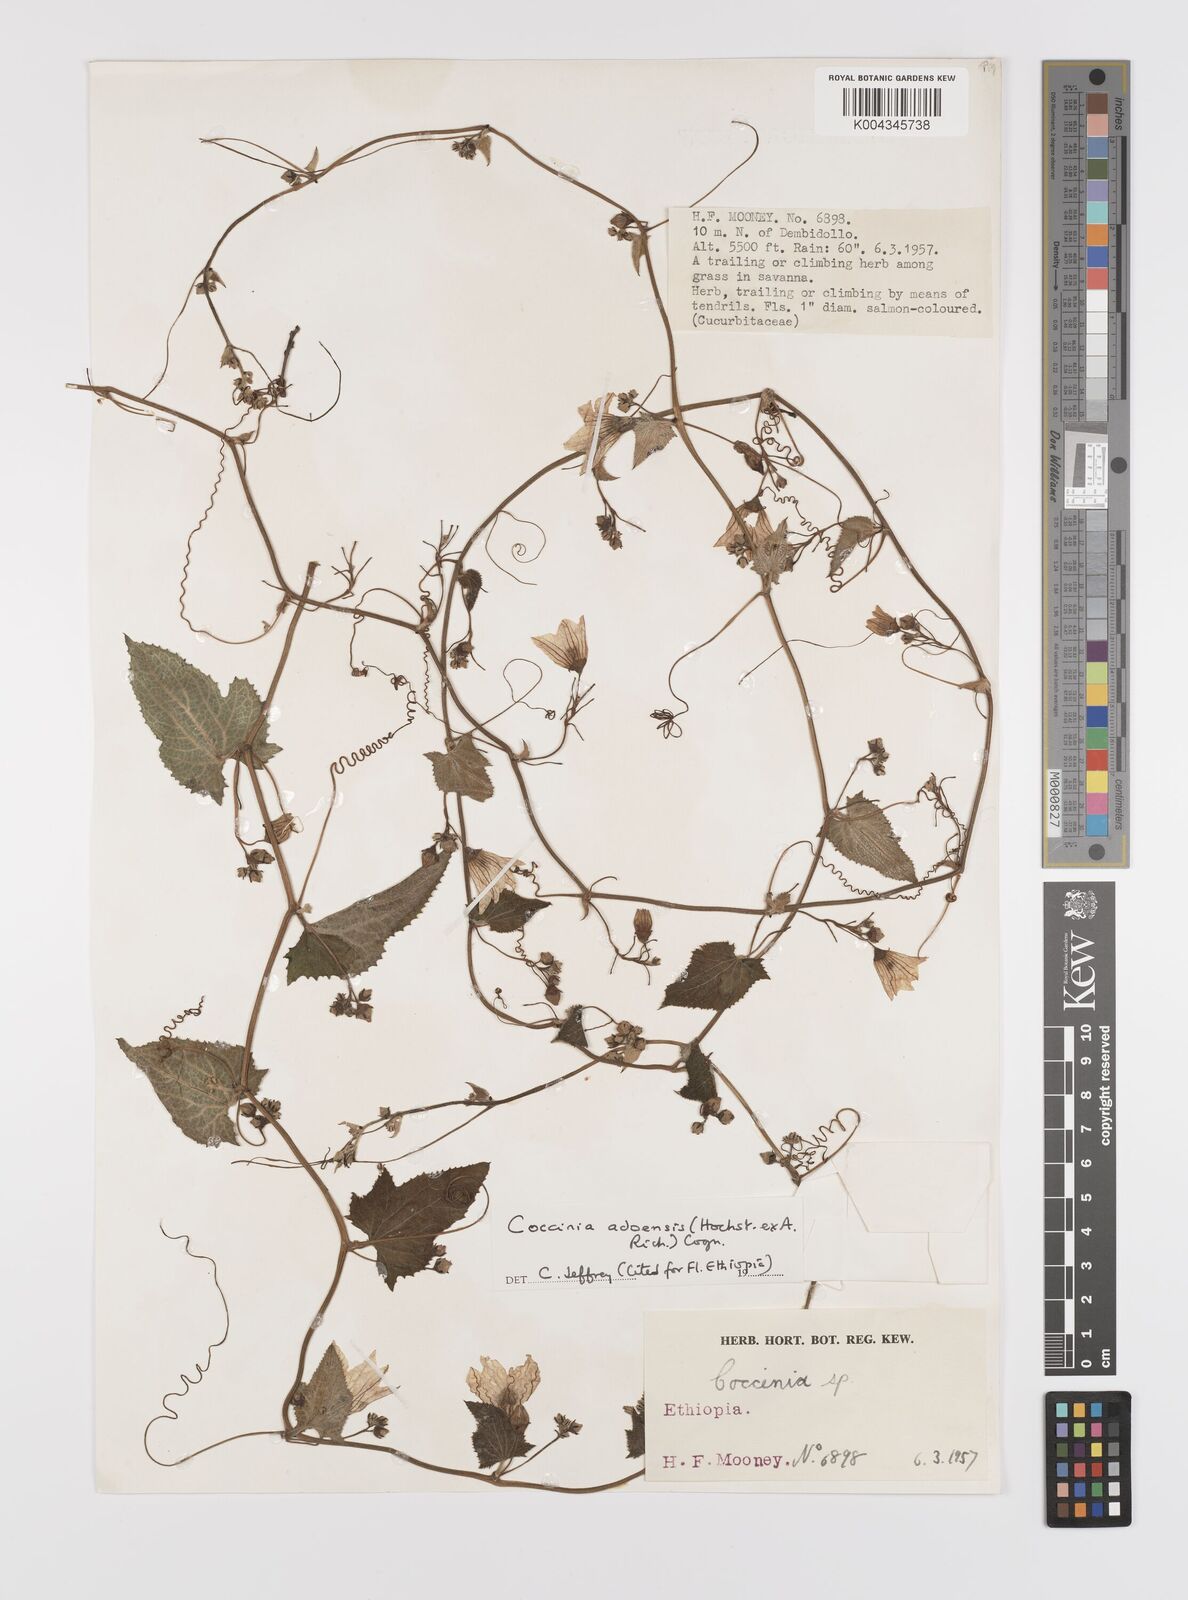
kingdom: Plantae
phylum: Tracheophyta
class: Magnoliopsida
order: Cucurbitales
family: Cucurbitaceae
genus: Coccinia
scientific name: Coccinia adoensis
